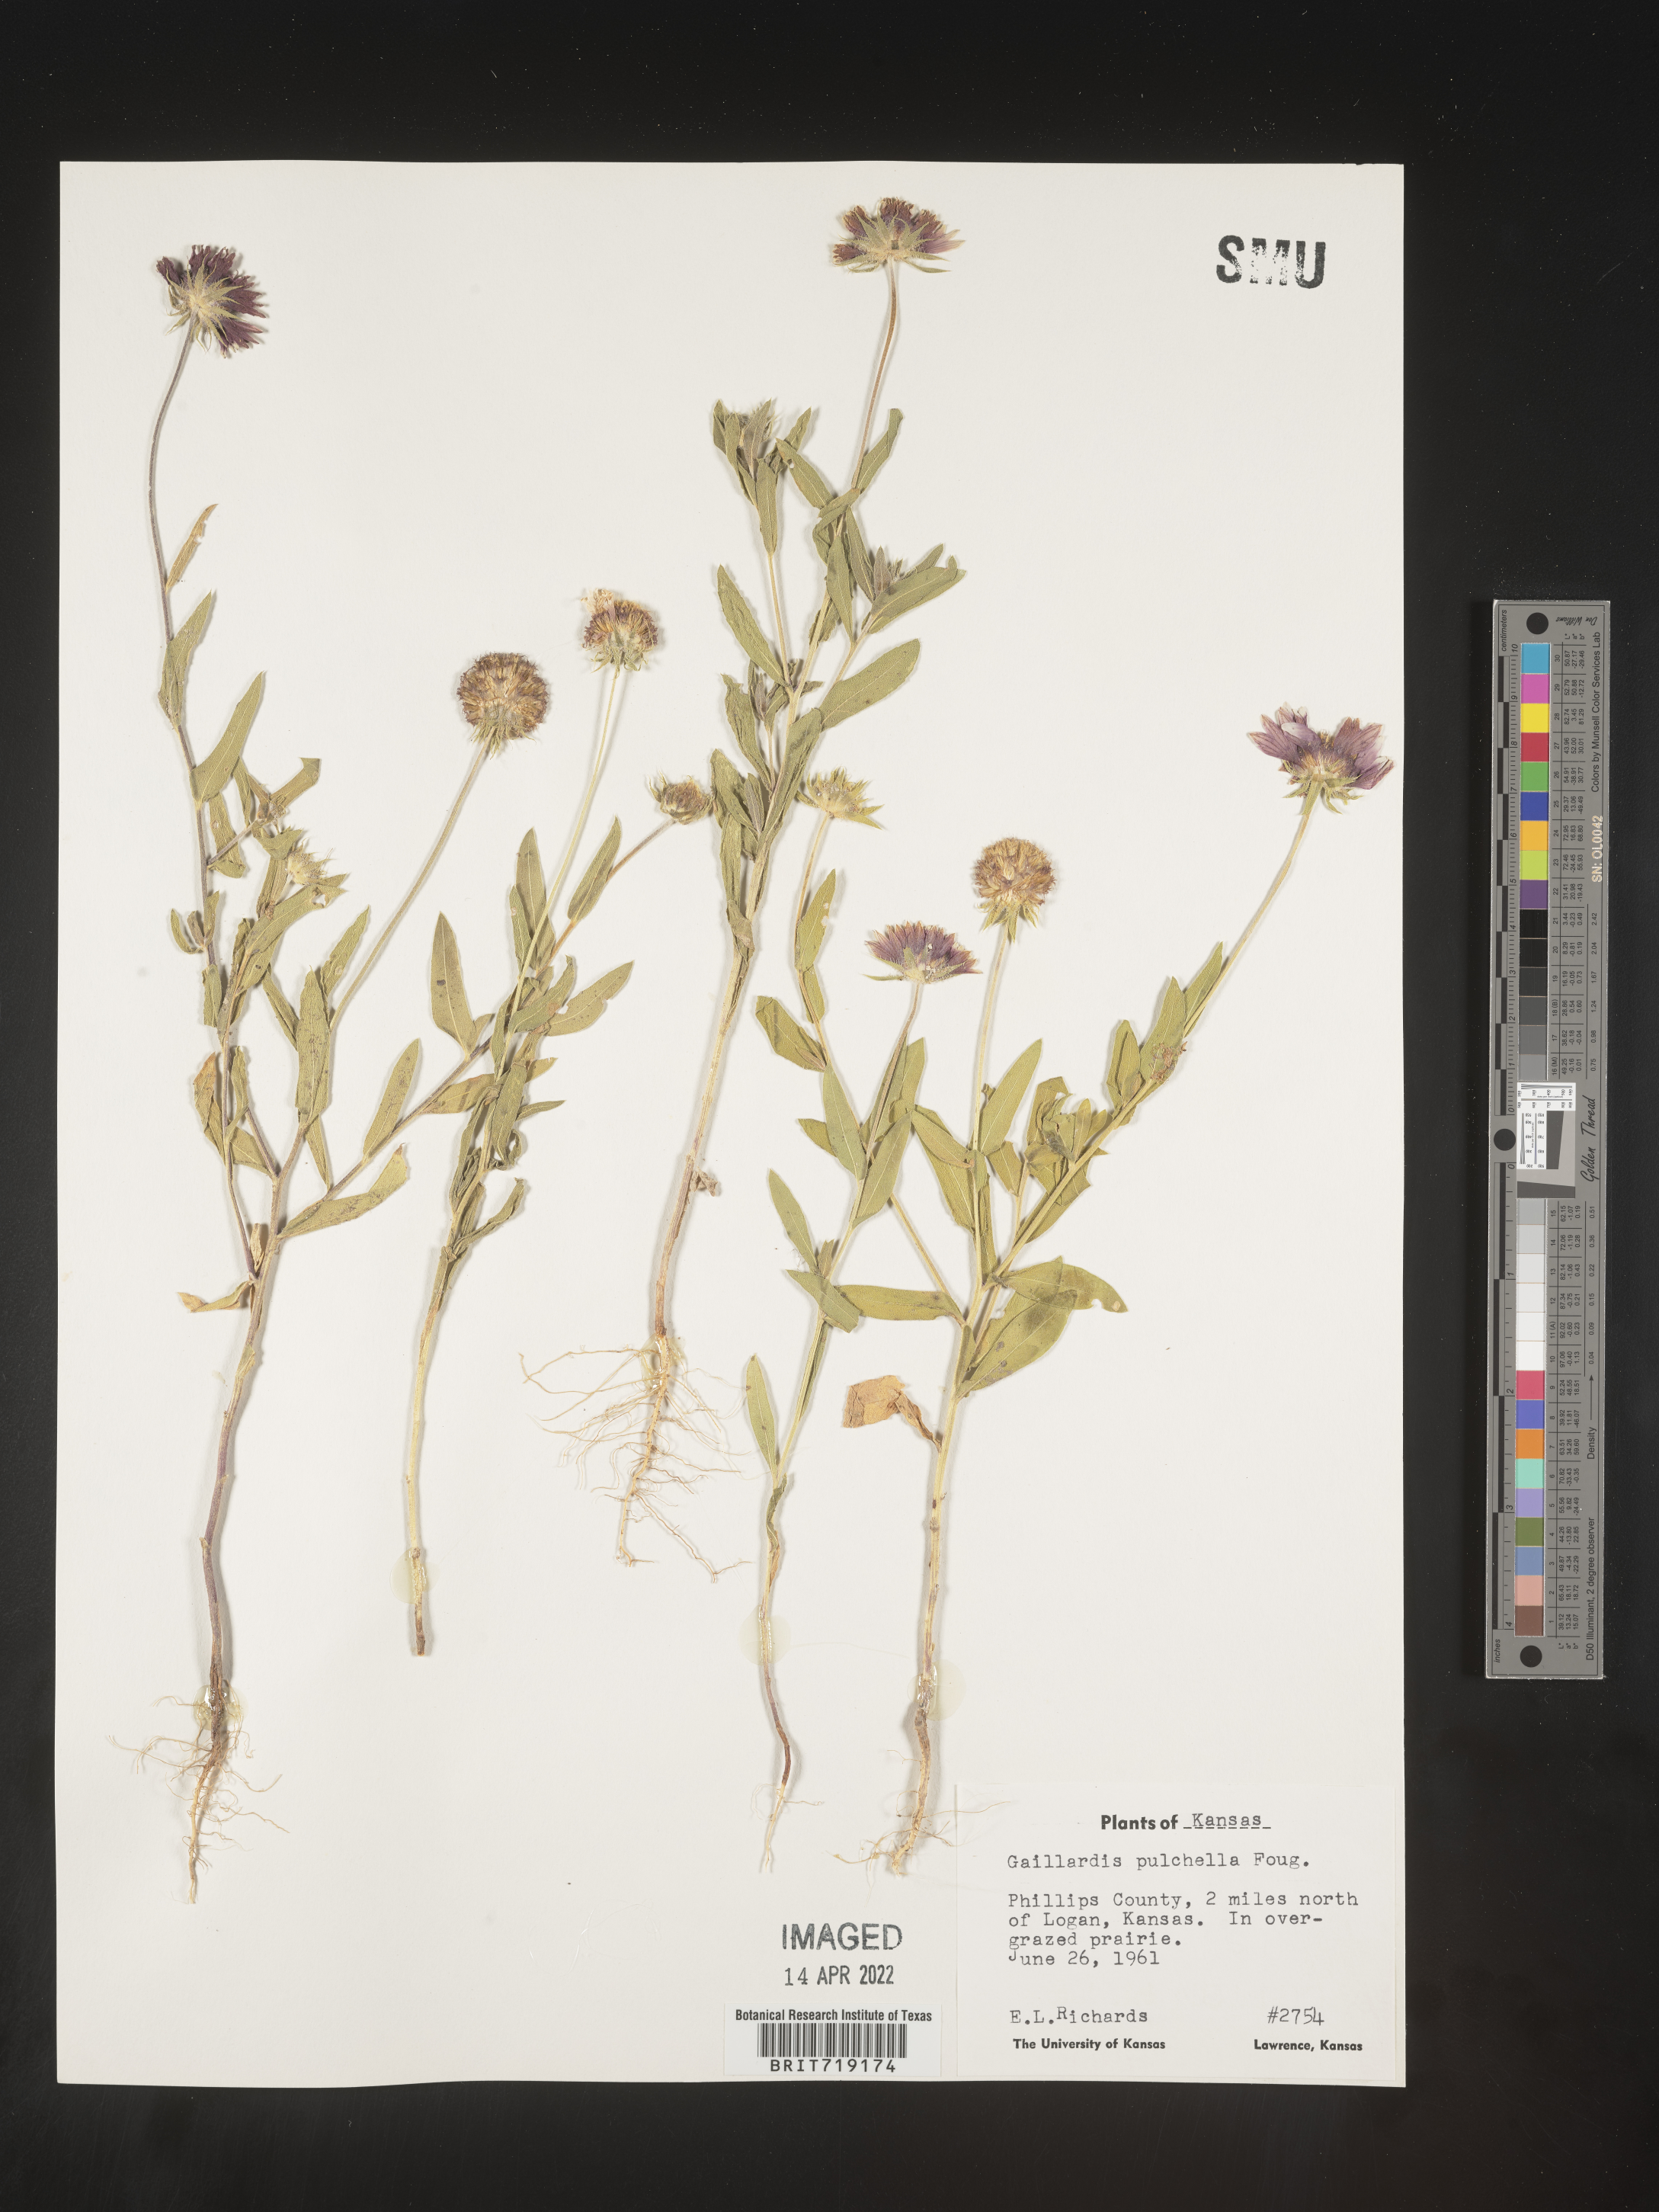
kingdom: Plantae
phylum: Tracheophyta
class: Magnoliopsida
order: Asterales
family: Asteraceae
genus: Gaillardia
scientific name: Gaillardia pulchella
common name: Firewheel
